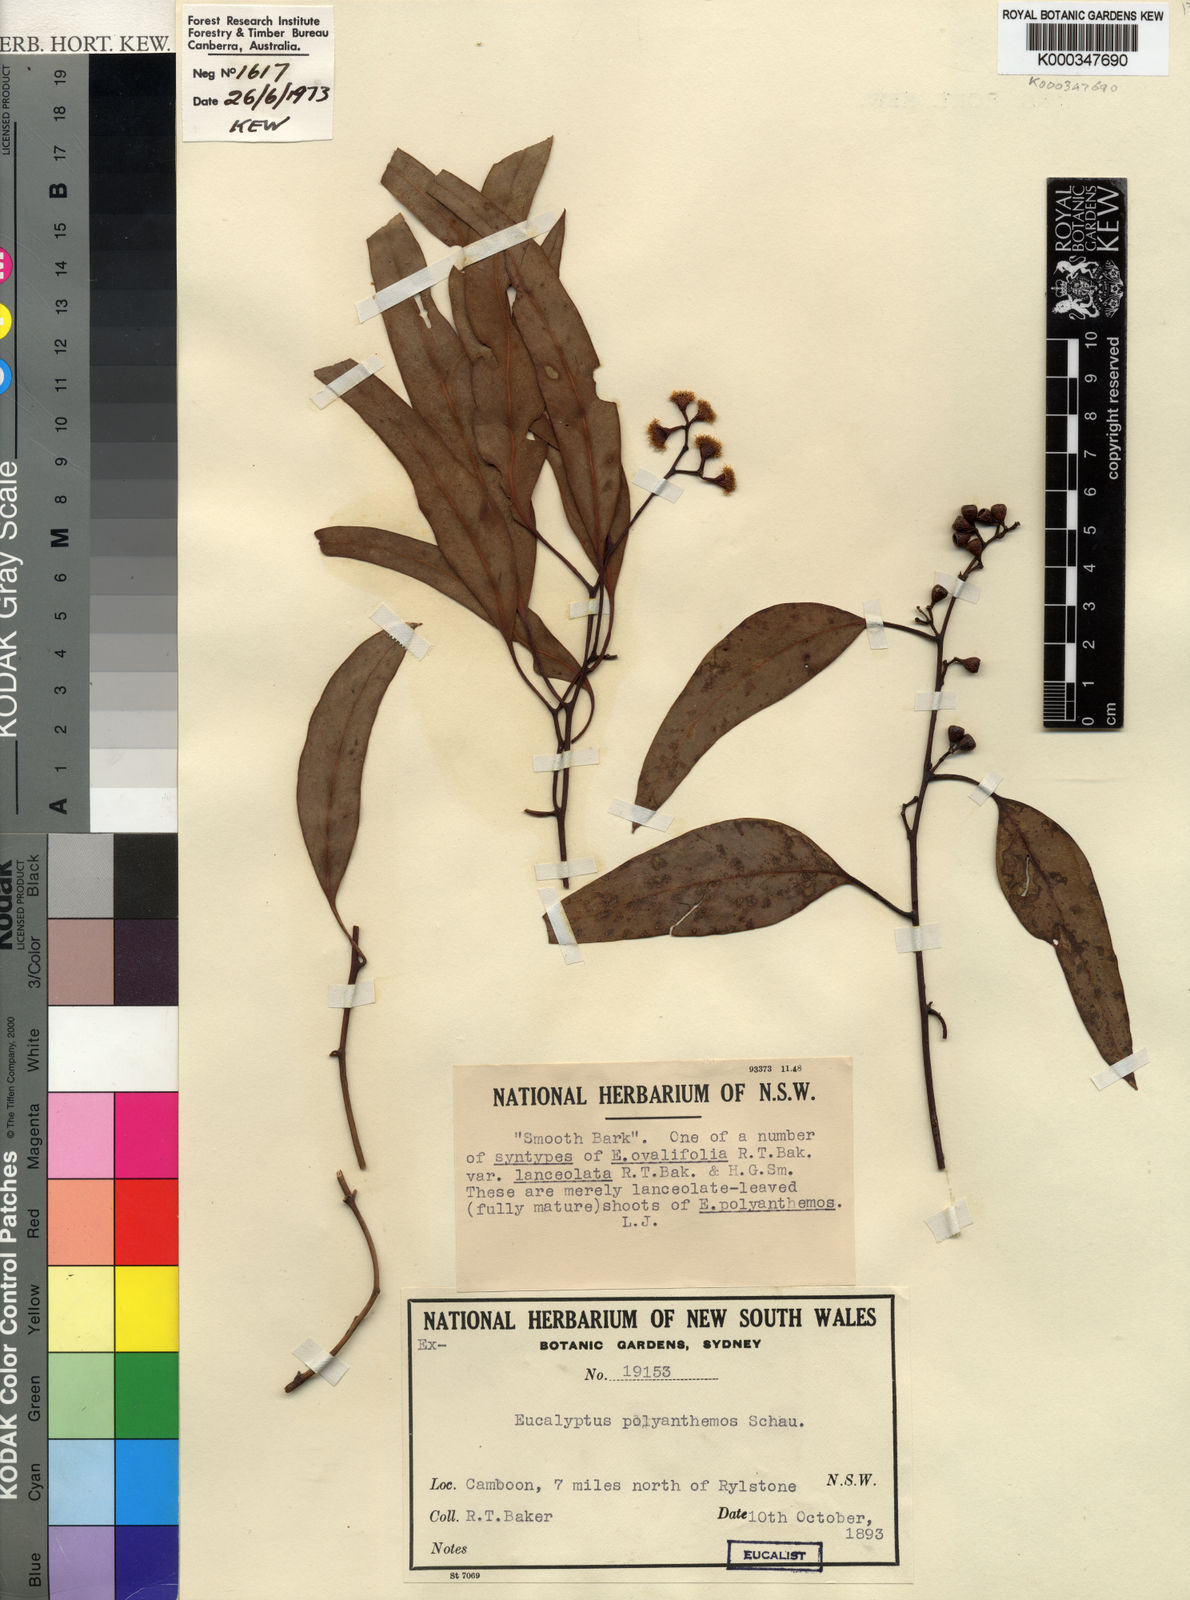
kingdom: Plantae
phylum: Tracheophyta
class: Magnoliopsida
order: Myrtales
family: Myrtaceae
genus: Eucalyptus
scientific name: Eucalyptus polyanthemos
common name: Red-box
